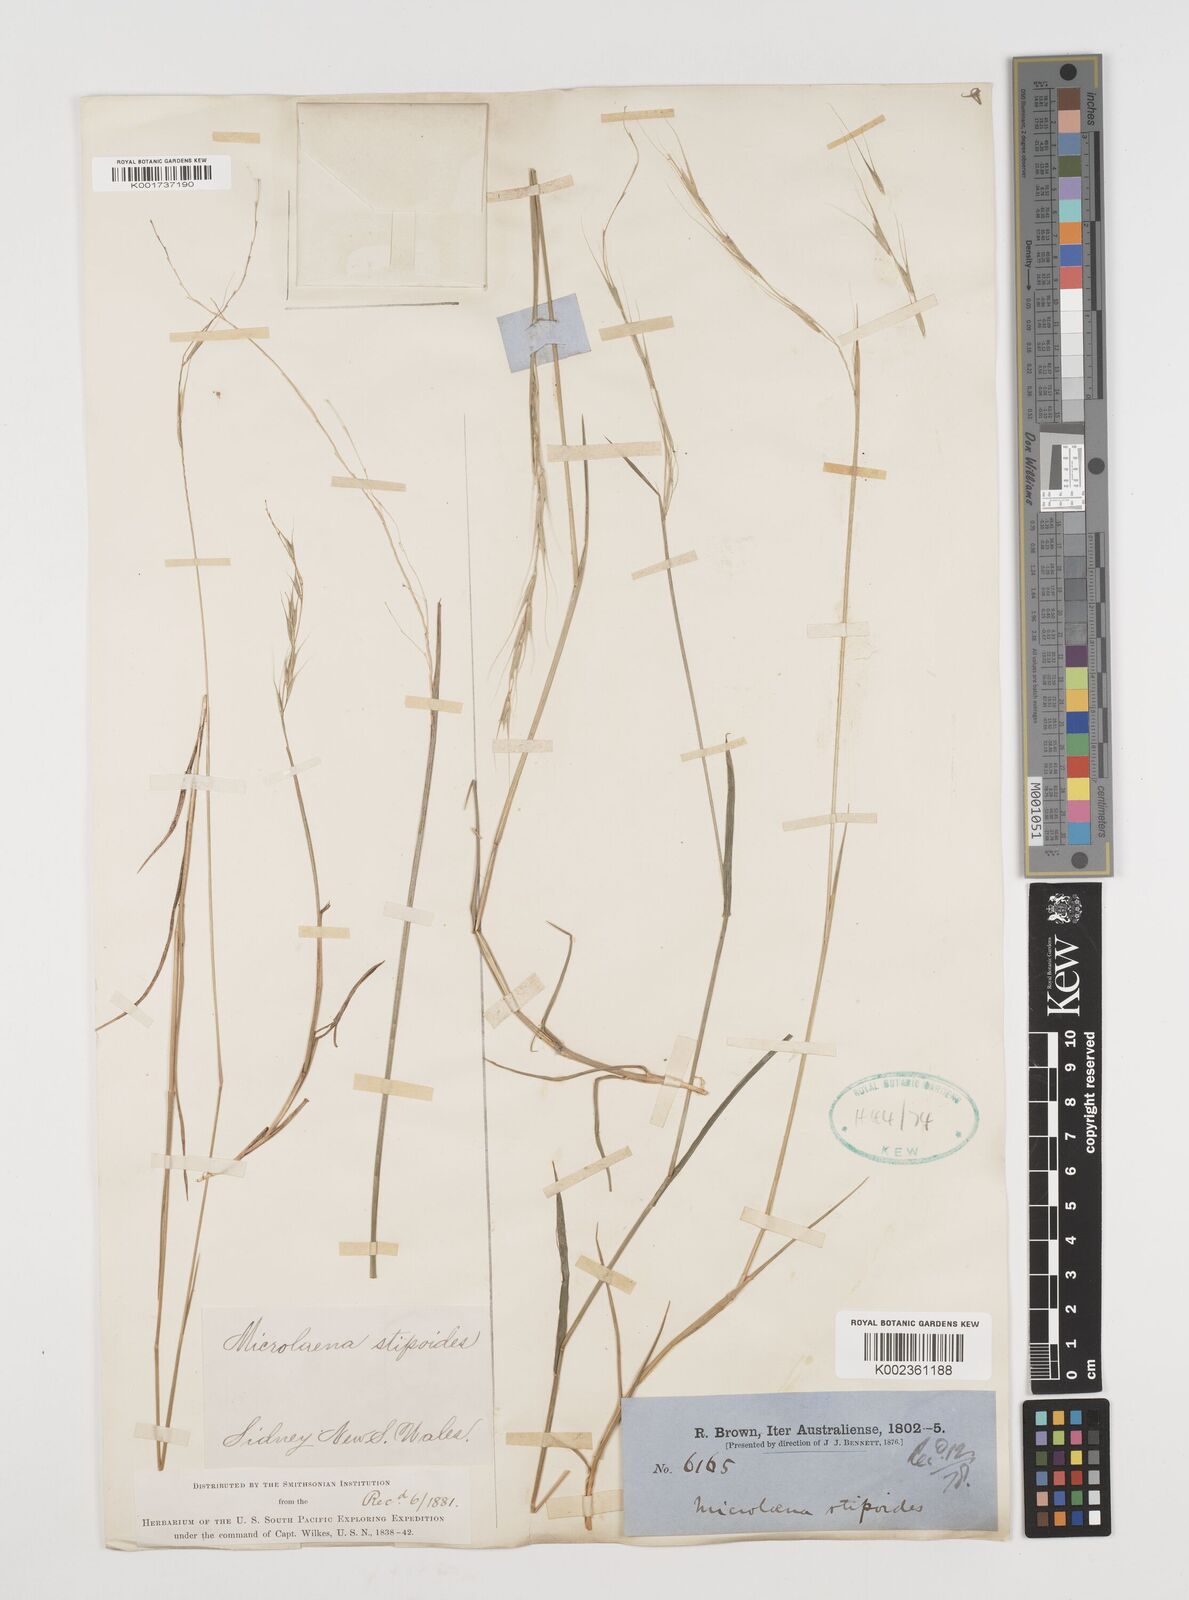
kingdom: Plantae
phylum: Tracheophyta
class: Liliopsida
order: Poales
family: Poaceae
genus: Microlaena
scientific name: Microlaena stipoides
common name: Meadow ricegrass
